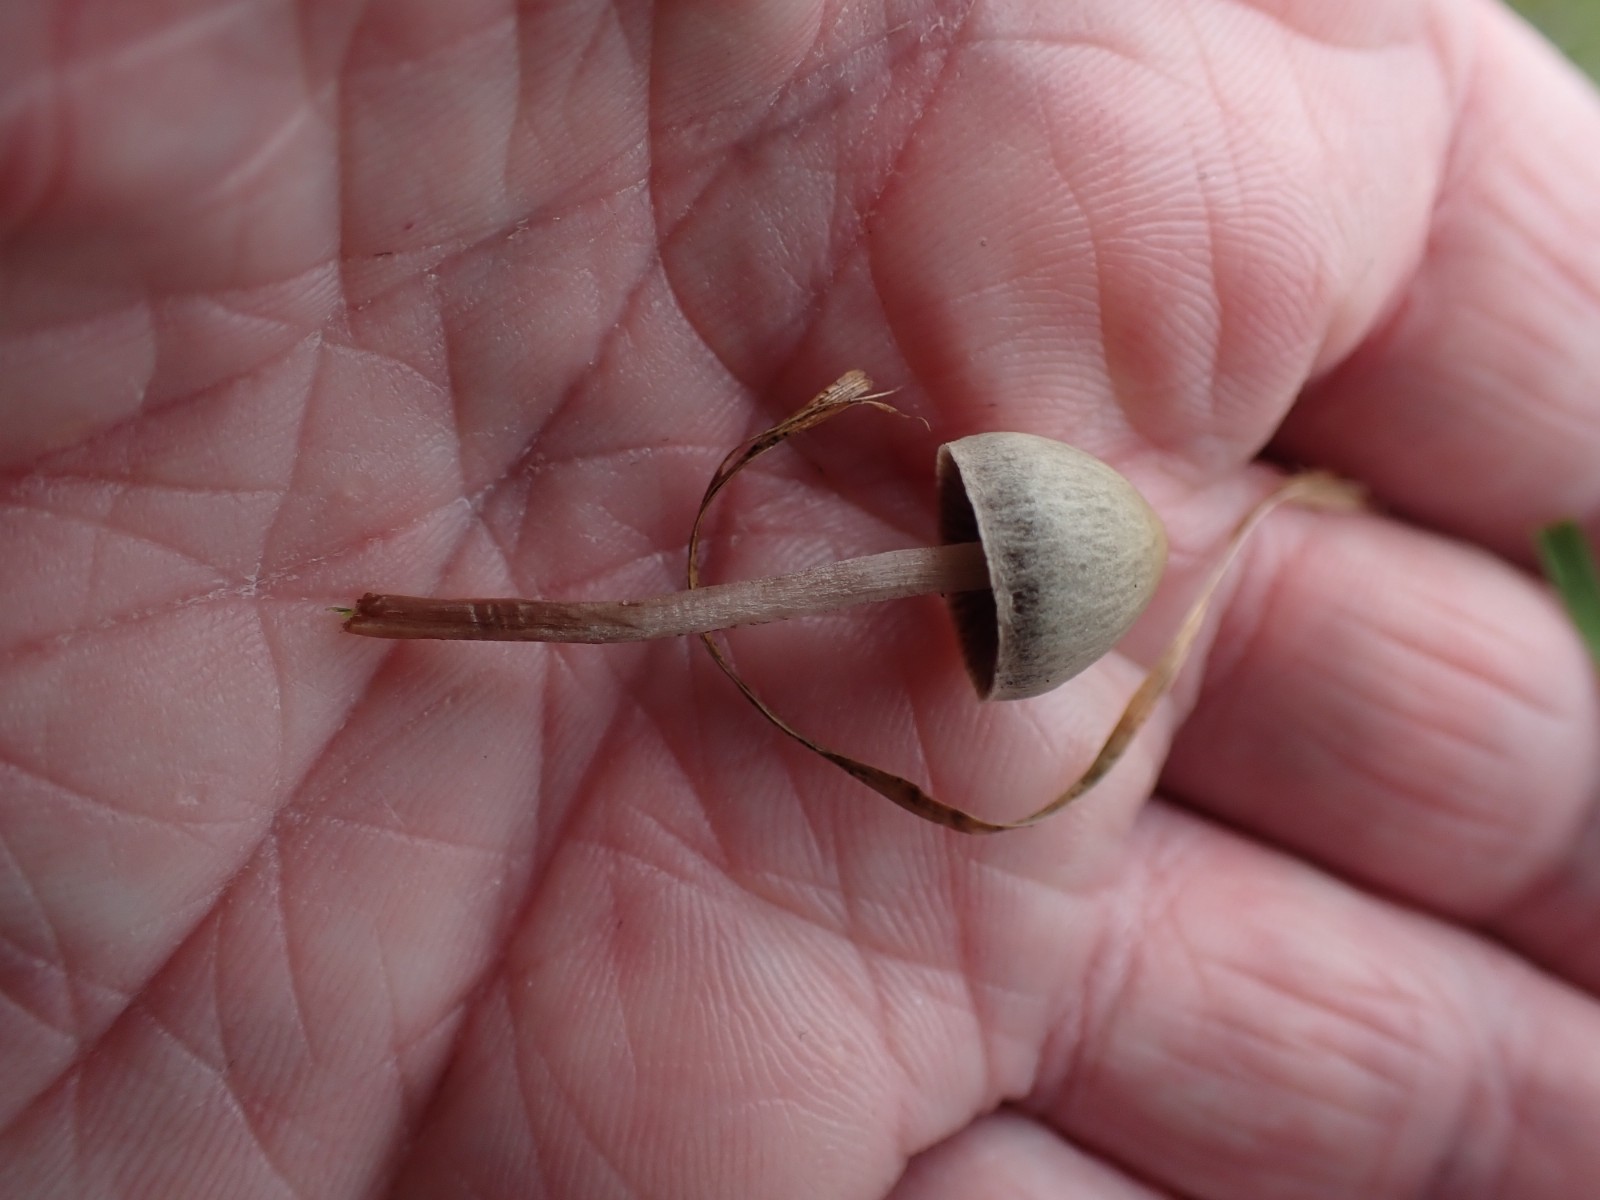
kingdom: Fungi
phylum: Basidiomycota
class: Agaricomycetes
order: Agaricales
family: Bolbitiaceae
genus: Panaeolus
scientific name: Panaeolus
